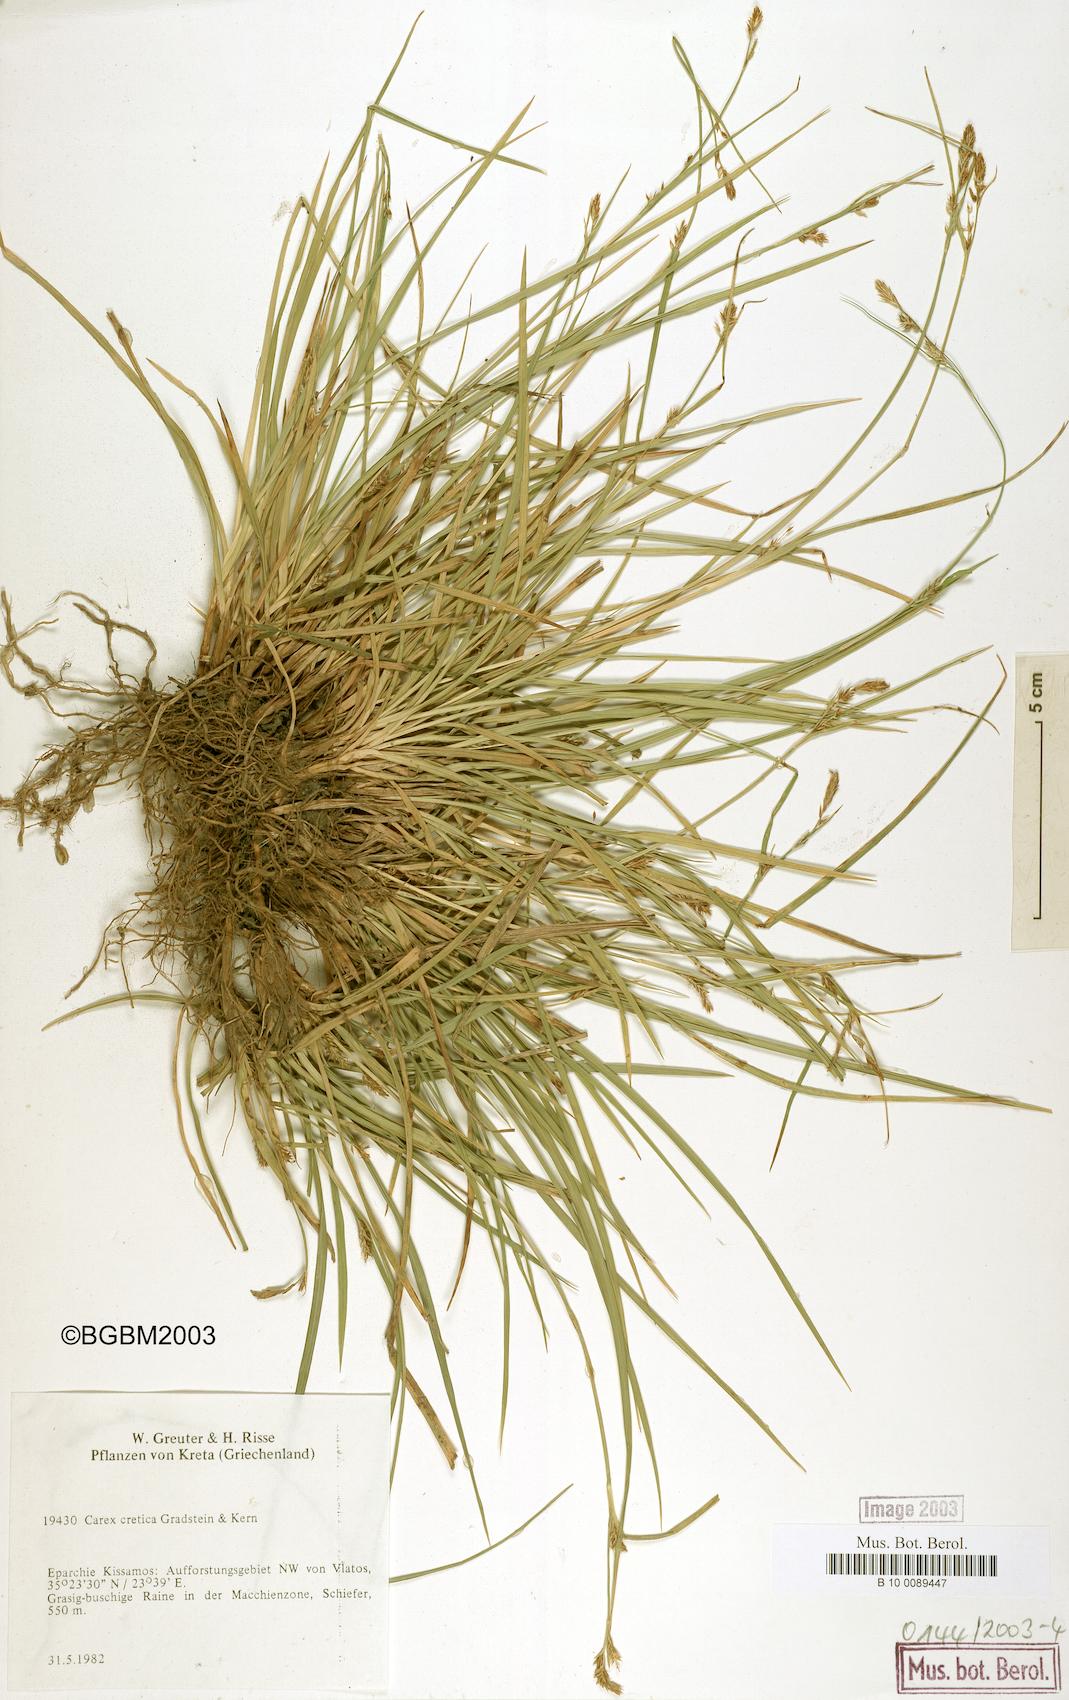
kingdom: Plantae
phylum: Tracheophyta
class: Liliopsida
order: Poales
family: Cyperaceae
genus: Carex
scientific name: Carex cretica
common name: Crete sedge
